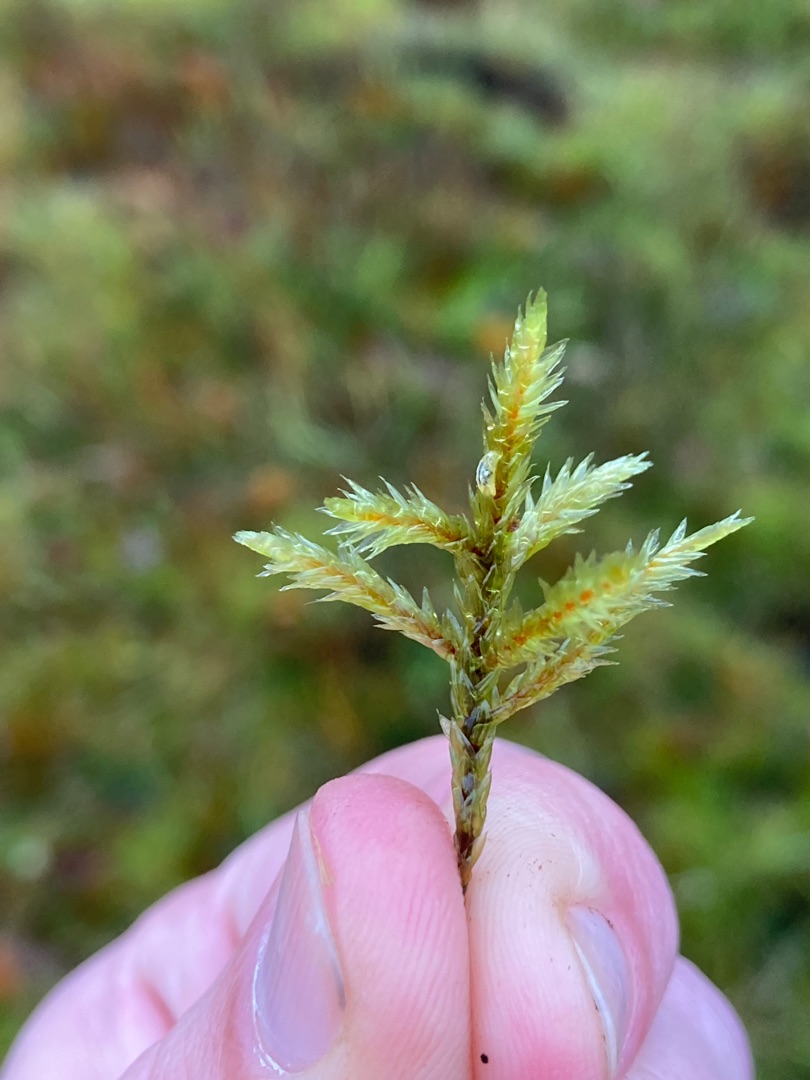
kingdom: Plantae
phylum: Bryophyta
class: Bryopsida
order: Hypnales
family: Climaciaceae
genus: Climacium
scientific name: Climacium dendroides
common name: Stor engkost
